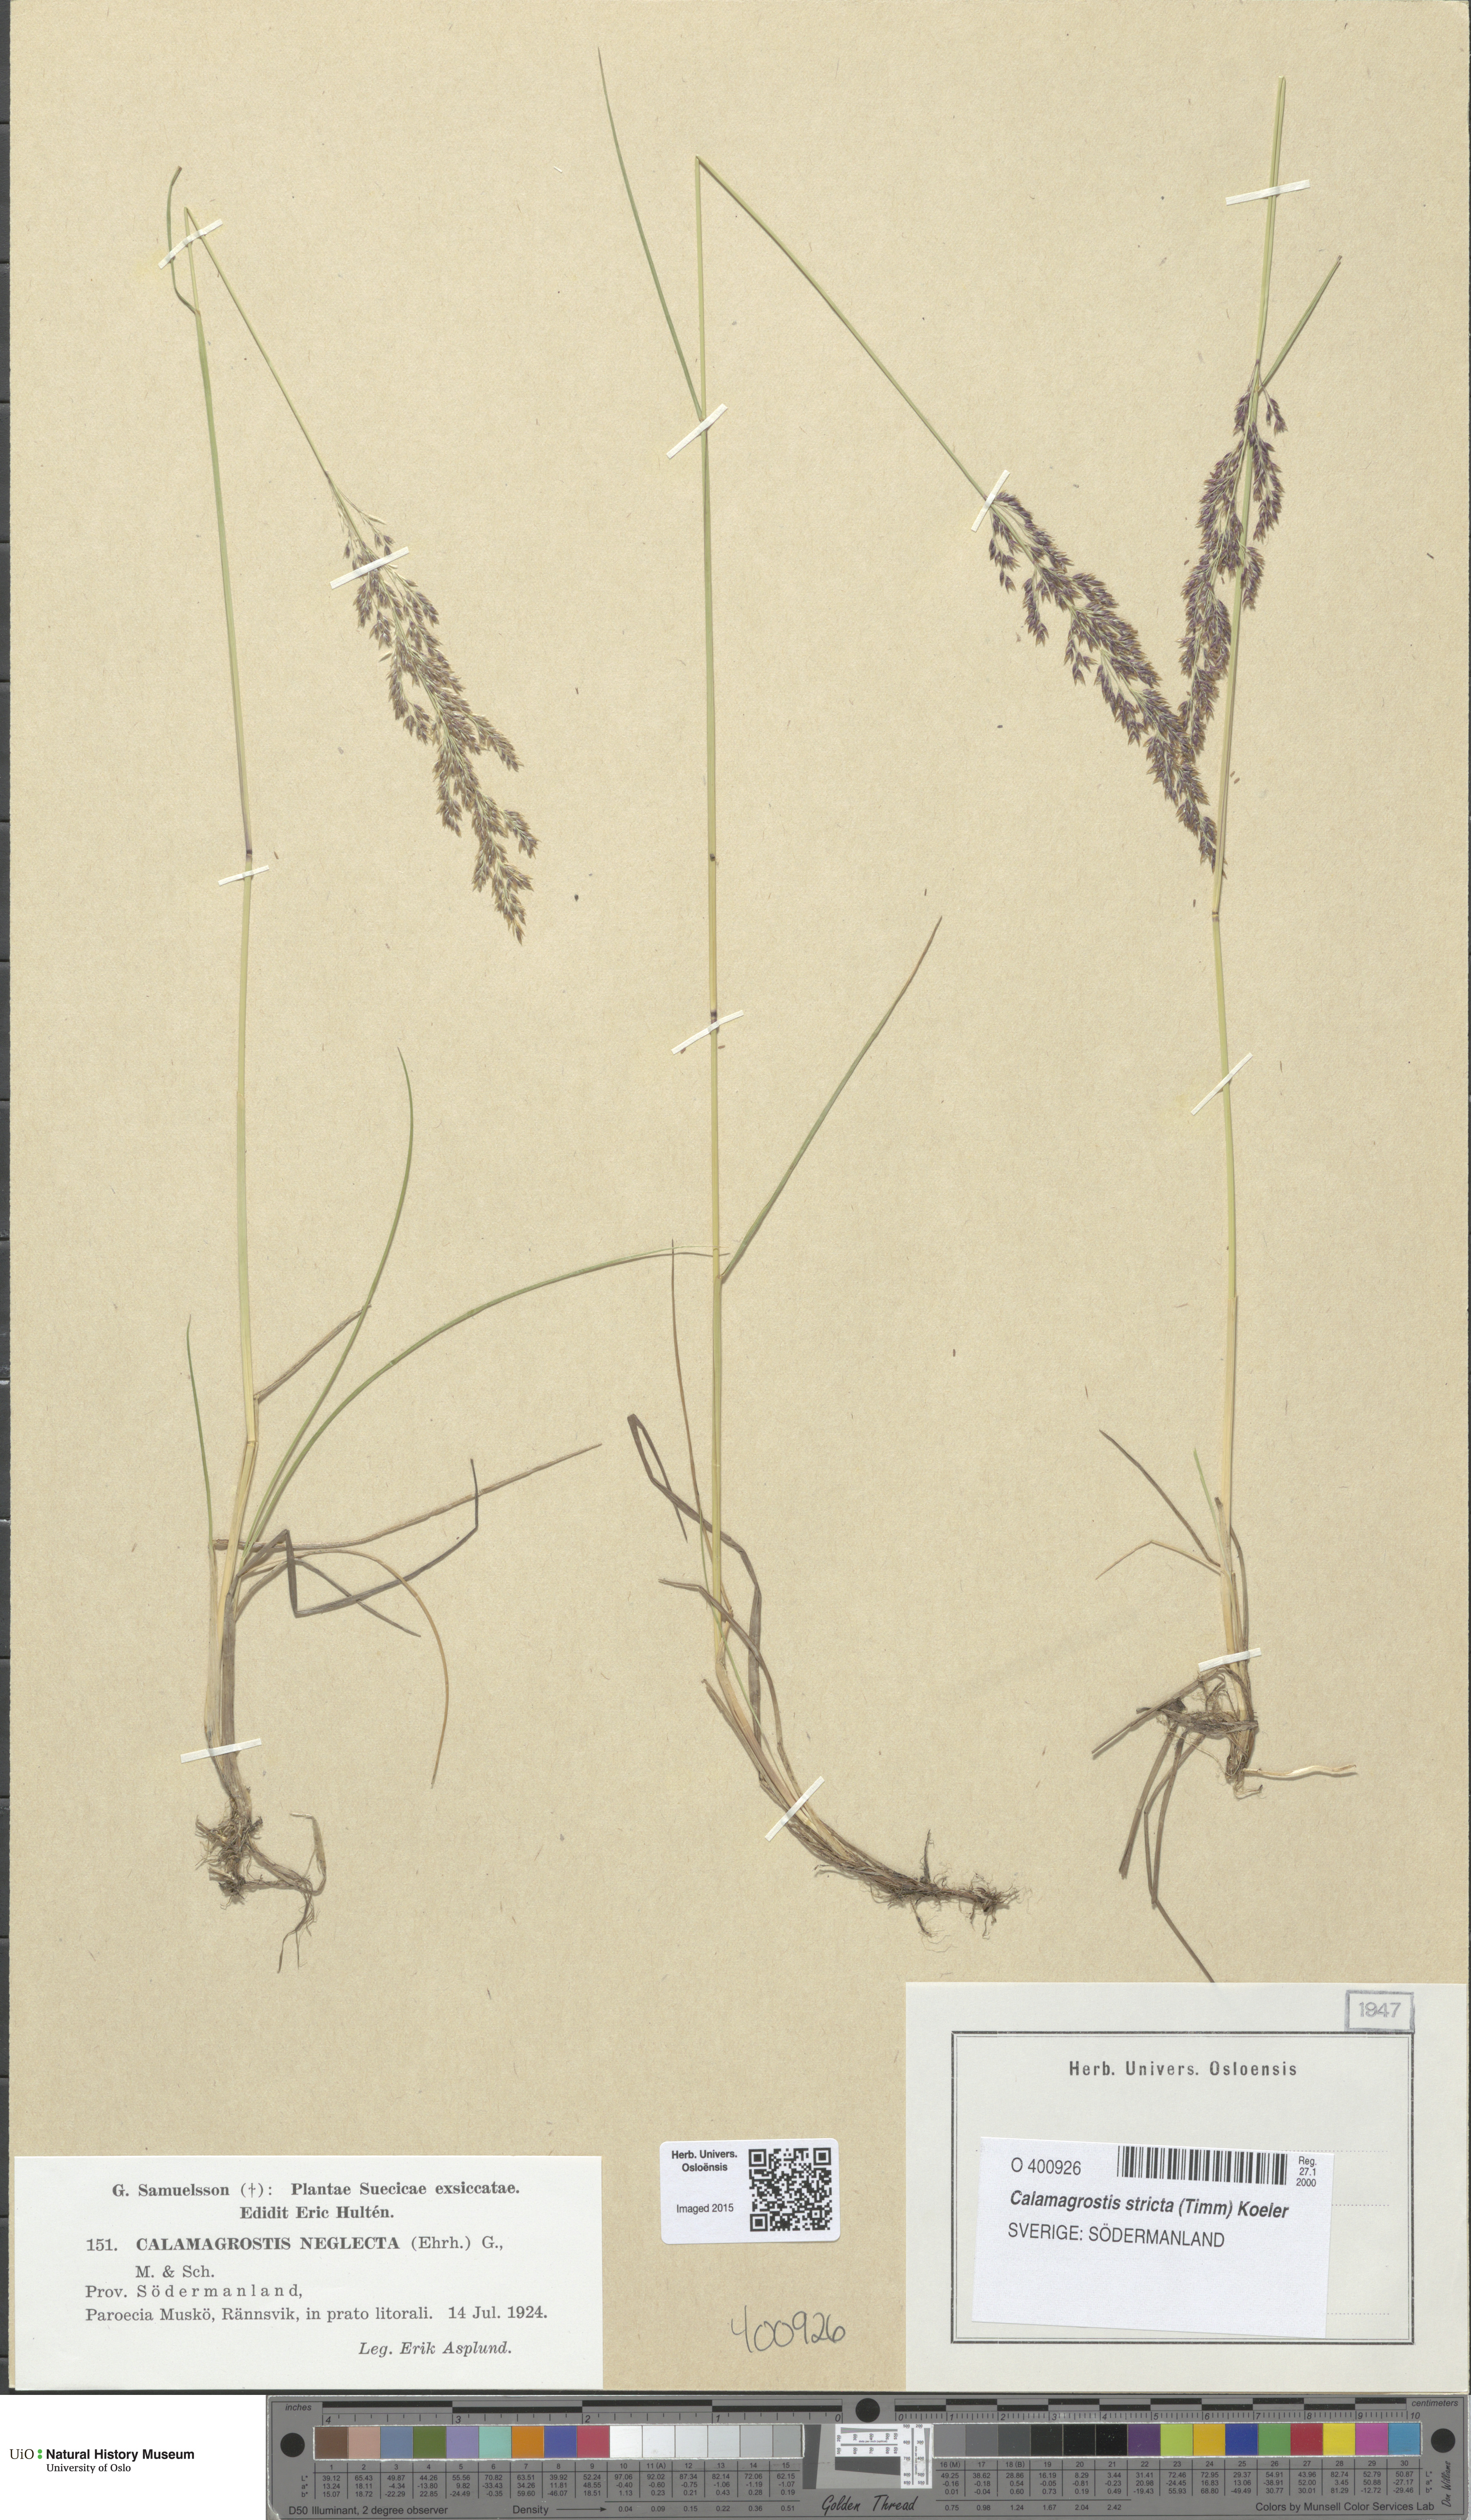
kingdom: Plantae
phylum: Tracheophyta
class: Liliopsida
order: Poales
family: Poaceae
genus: Achnatherum
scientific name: Achnatherum calamagrostis
